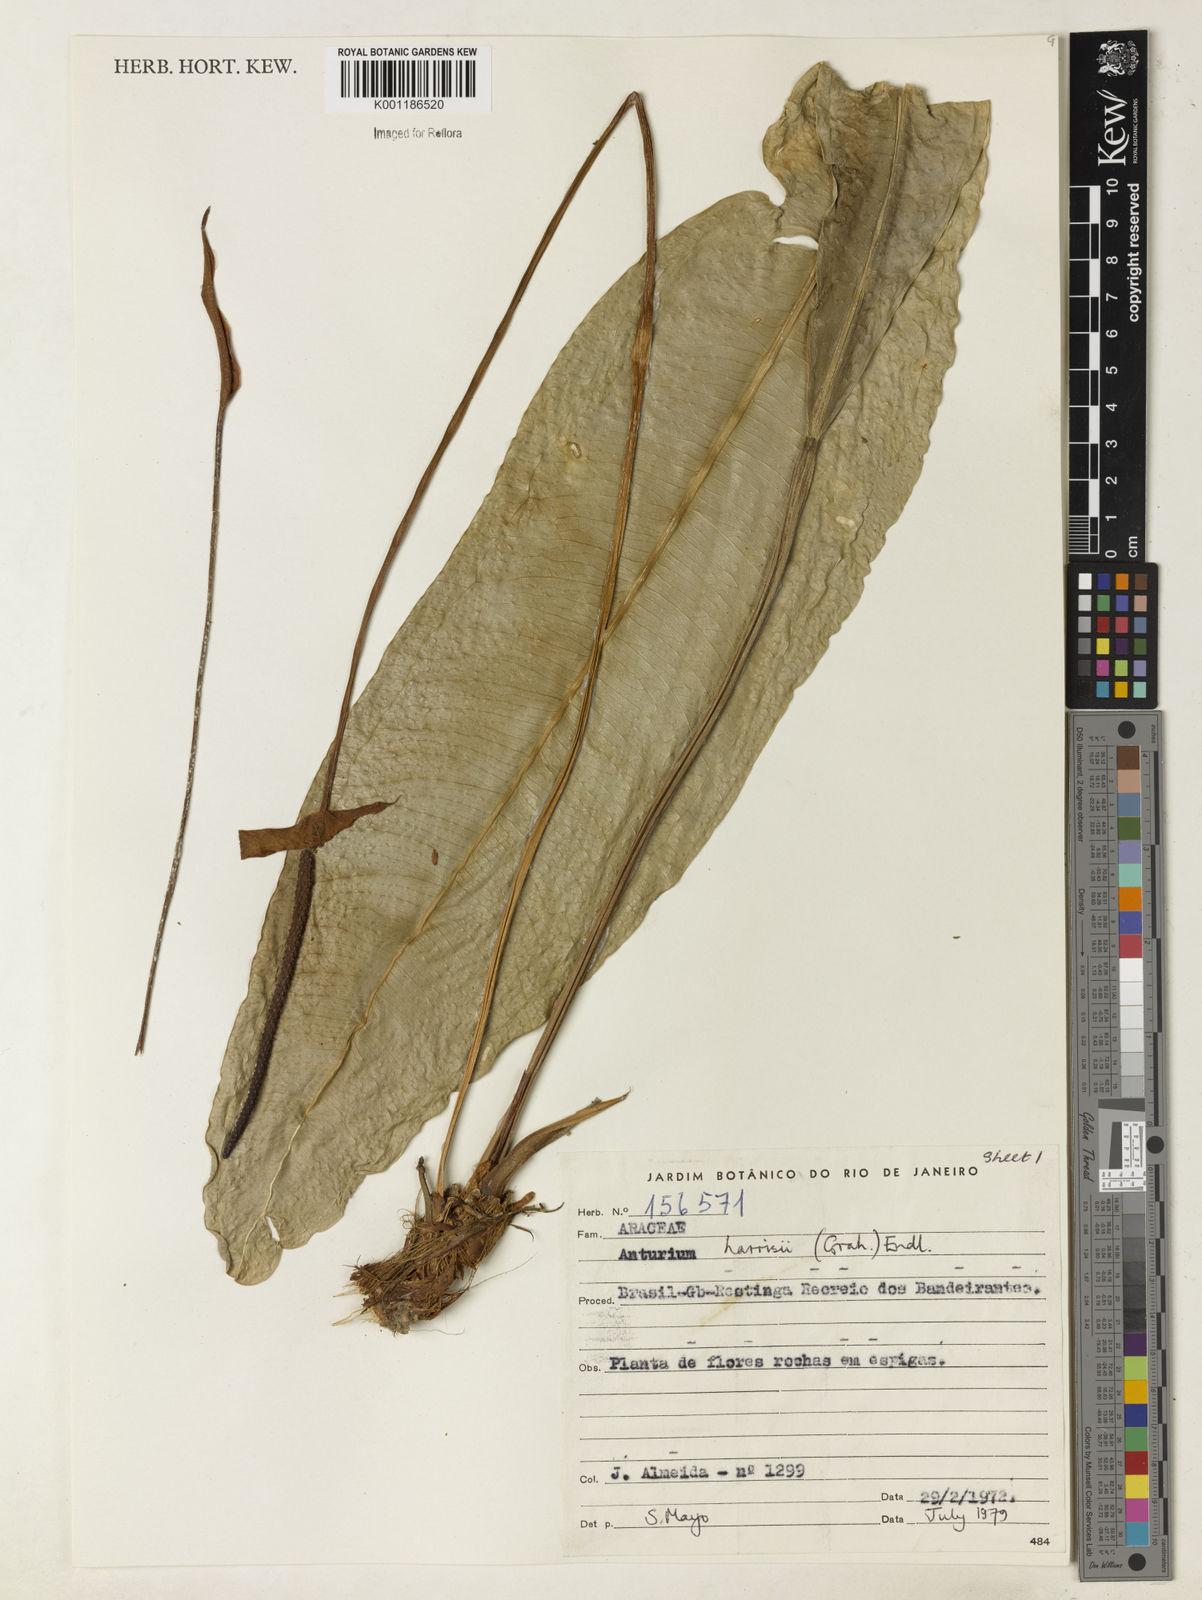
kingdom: Plantae
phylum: Tracheophyta
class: Liliopsida
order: Alismatales
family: Araceae
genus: Anthurium
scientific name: Anthurium harrisii
